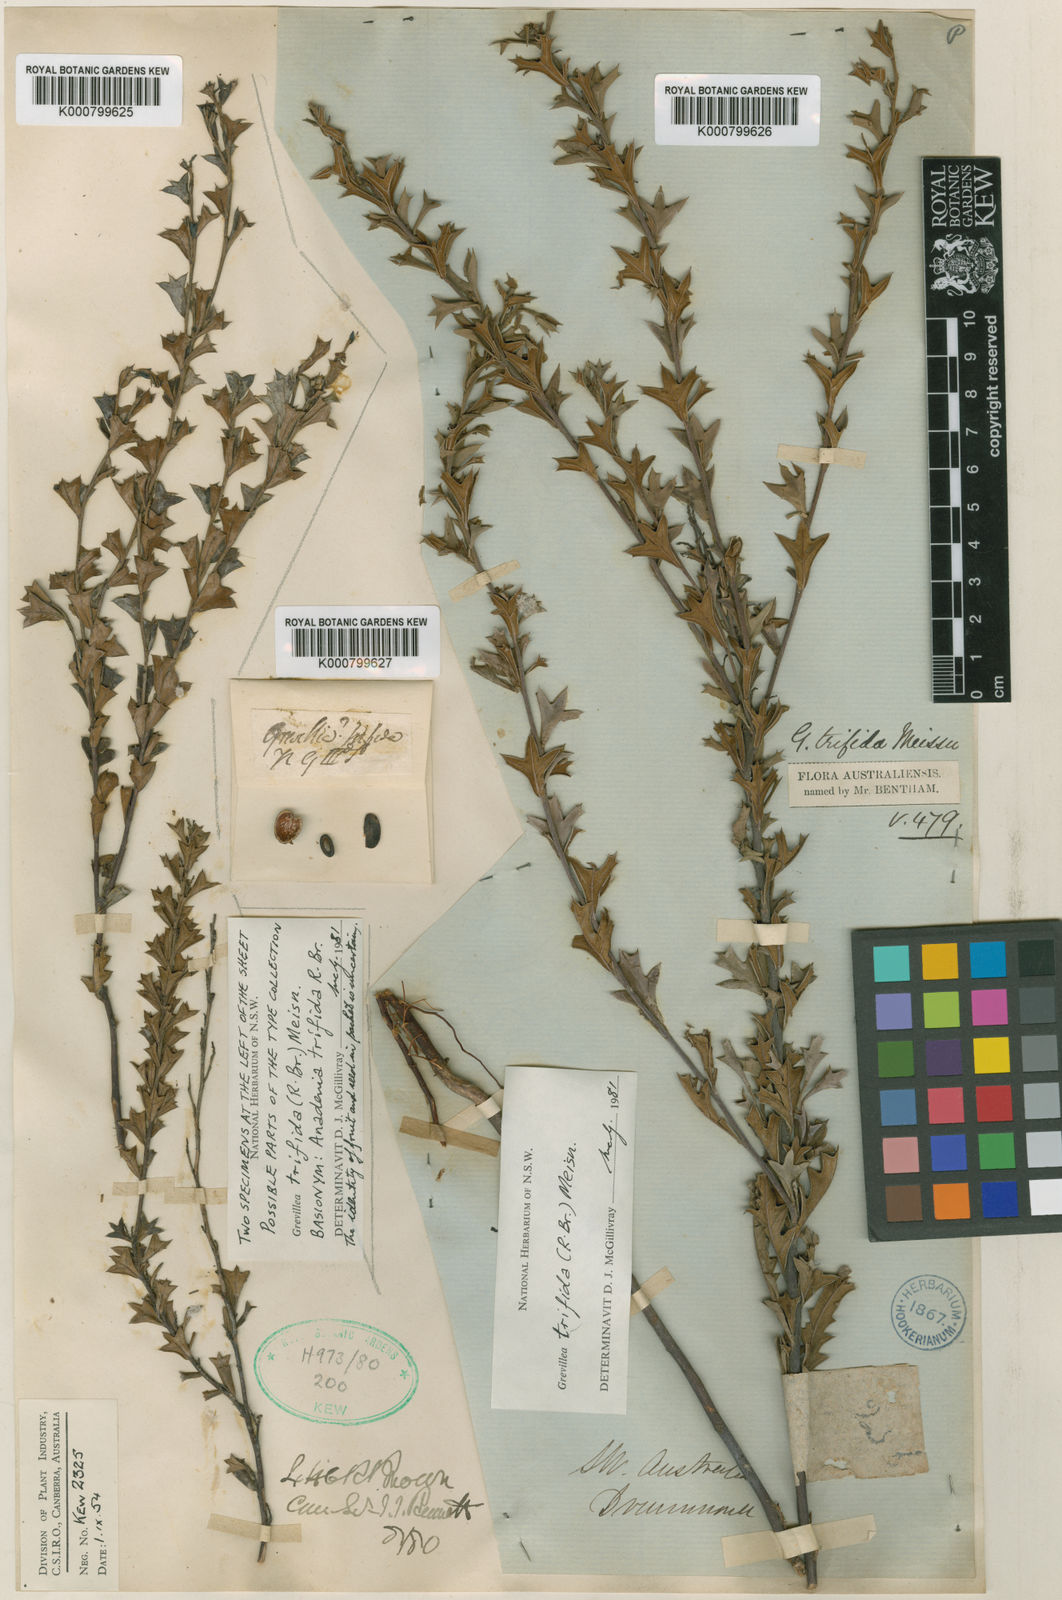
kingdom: Plantae
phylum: Tracheophyta
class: Magnoliopsida
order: Proteales
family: Proteaceae
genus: Grevillea
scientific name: Grevillea trifida
